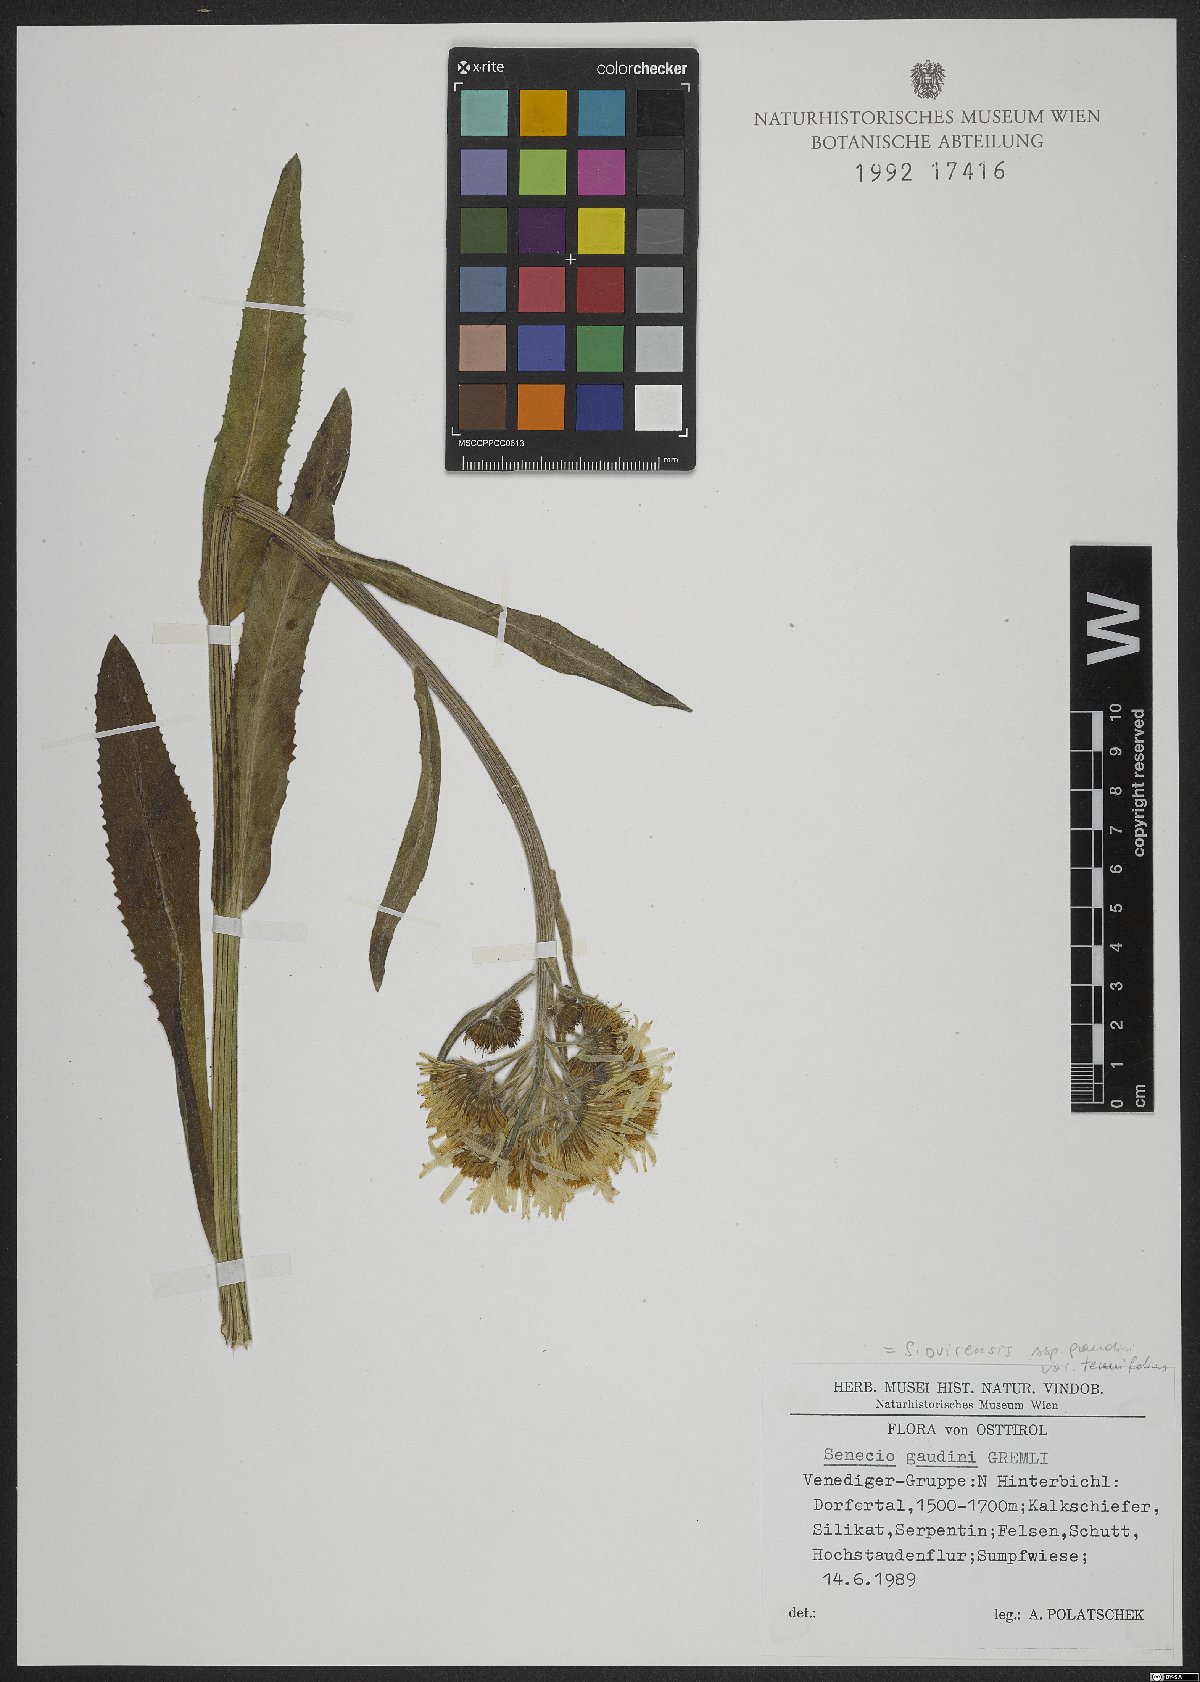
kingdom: Plantae
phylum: Tracheophyta
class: Magnoliopsida
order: Asterales
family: Asteraceae
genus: Tephroseris
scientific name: Tephroseris tenuifolia
